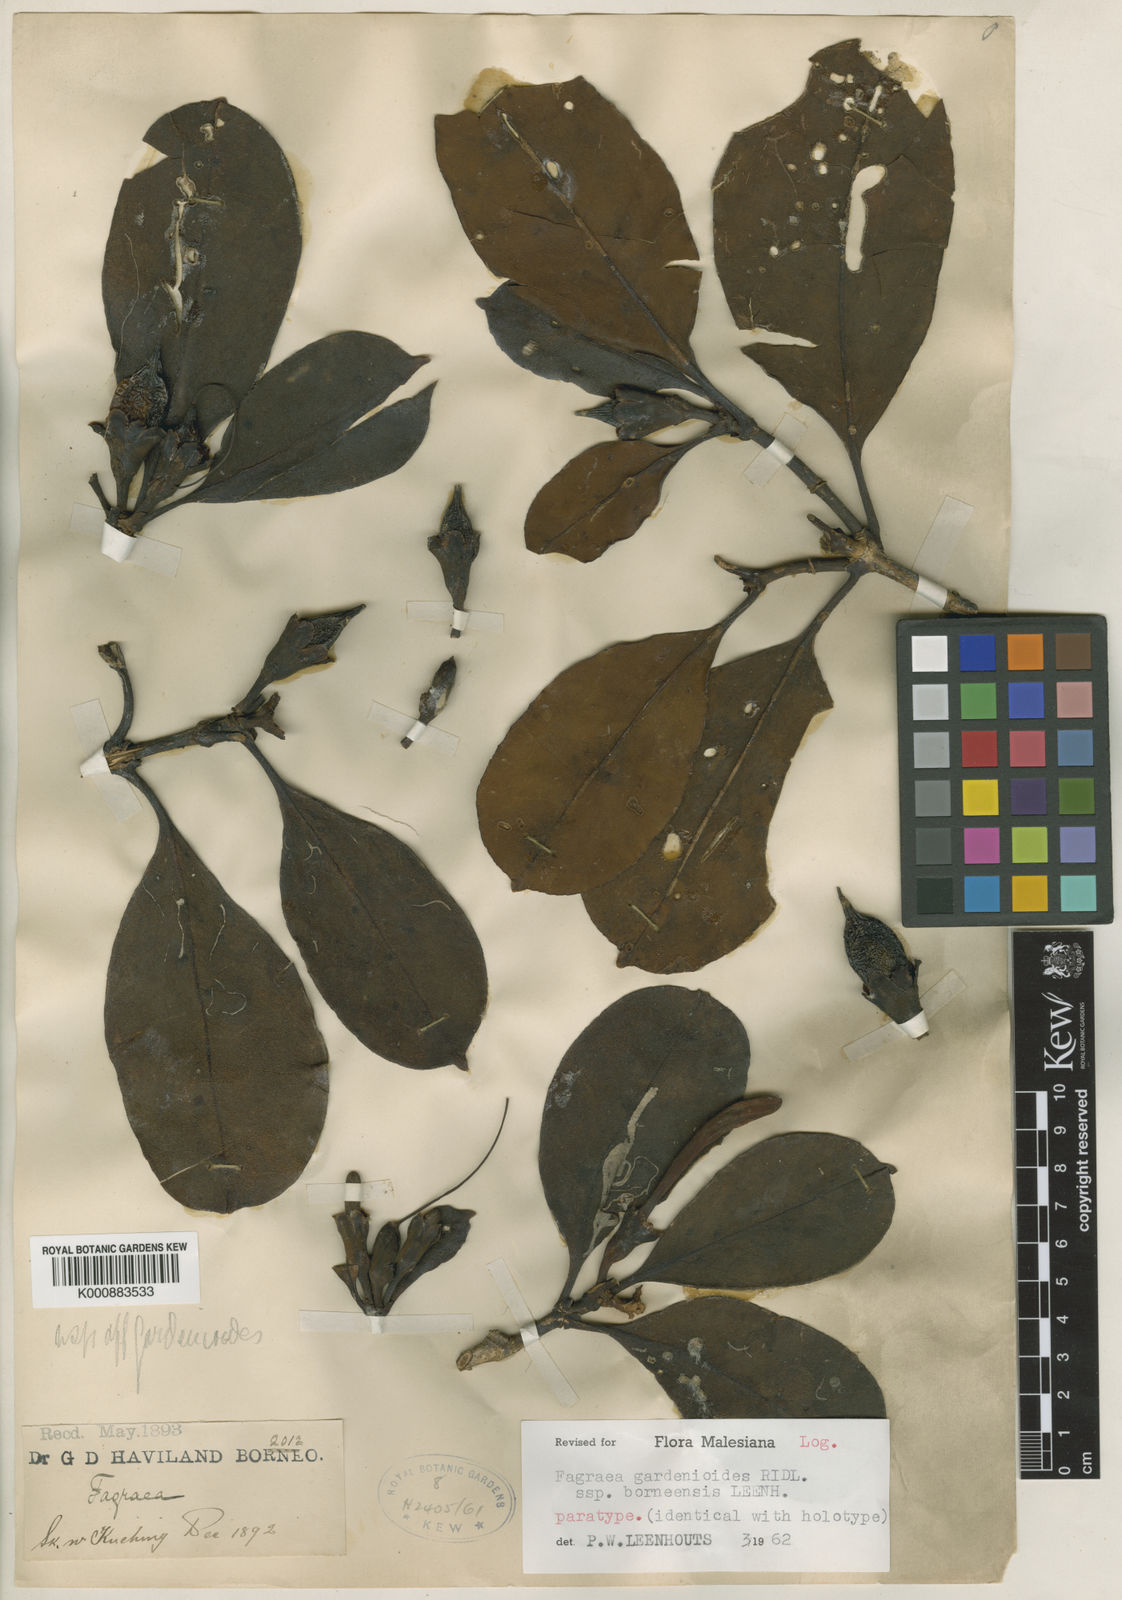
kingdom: Plantae
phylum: Tracheophyta
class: Magnoliopsida
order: Gentianales
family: Gentianaceae
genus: Fagraea
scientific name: Fagraea gardenioides
